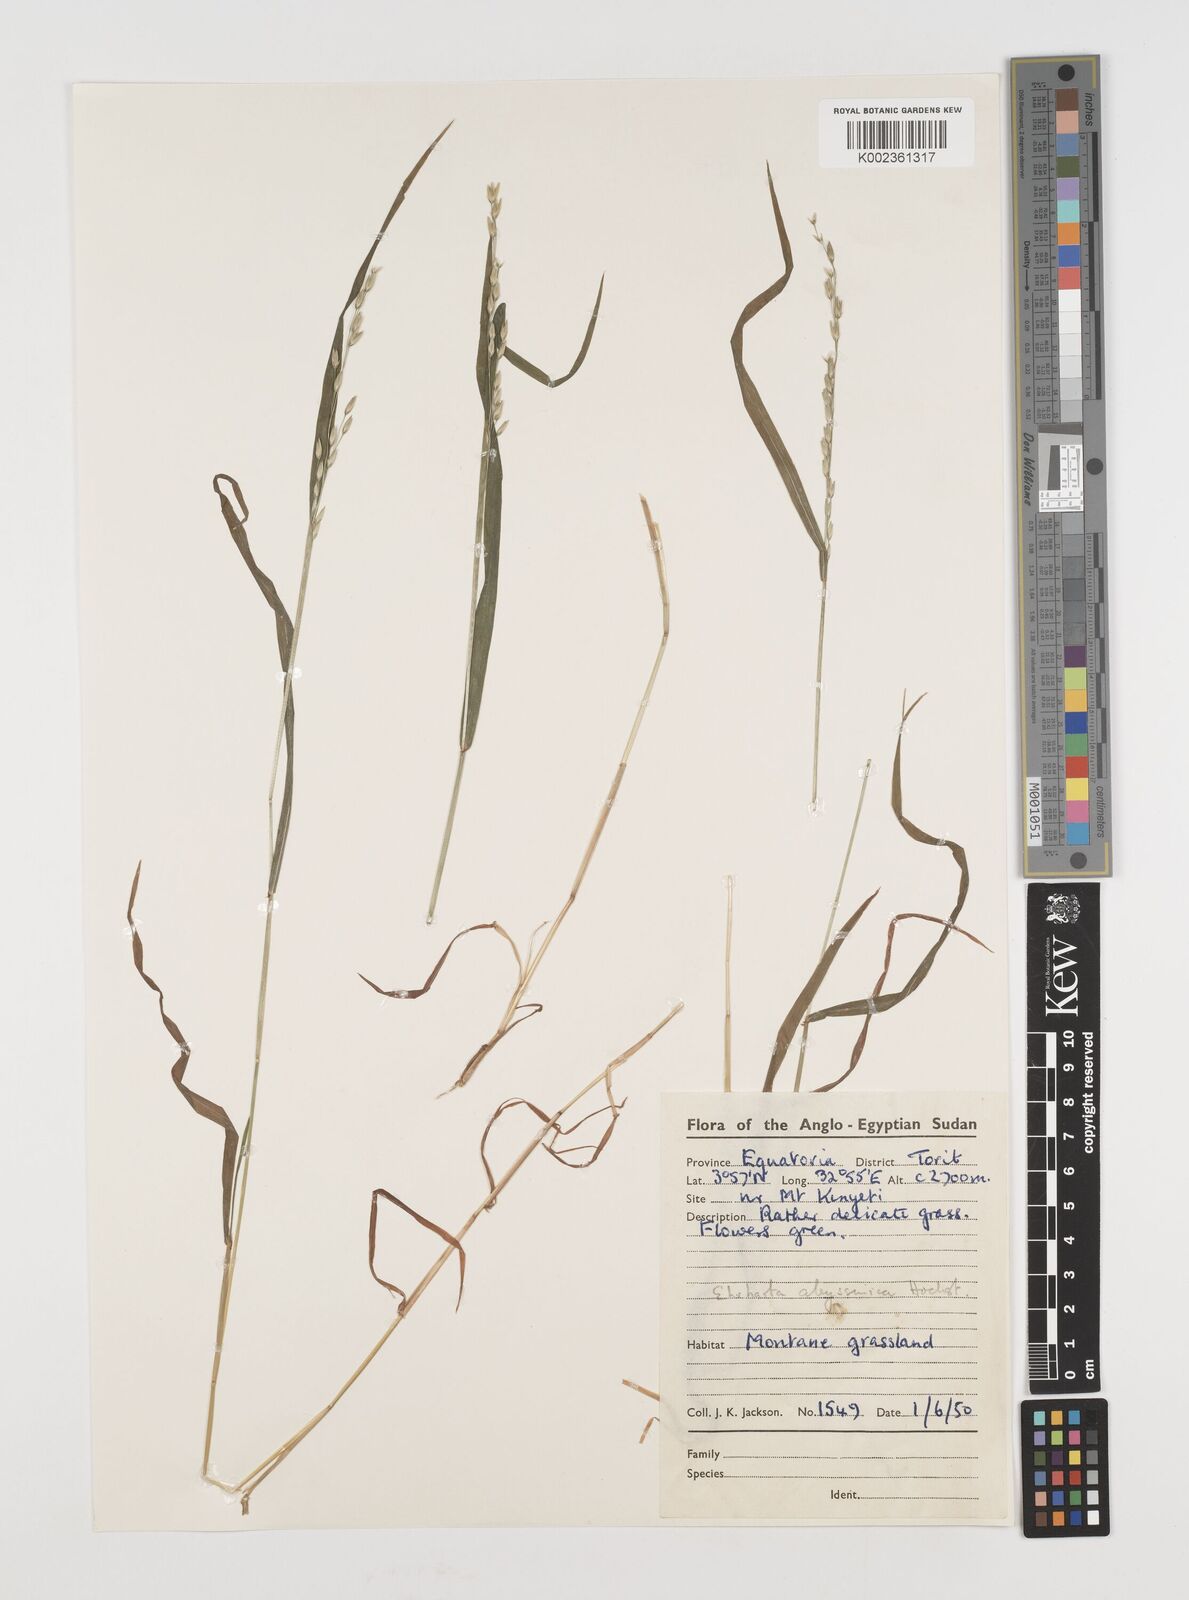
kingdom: Plantae
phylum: Tracheophyta
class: Liliopsida
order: Poales
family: Poaceae
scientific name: Poaceae
